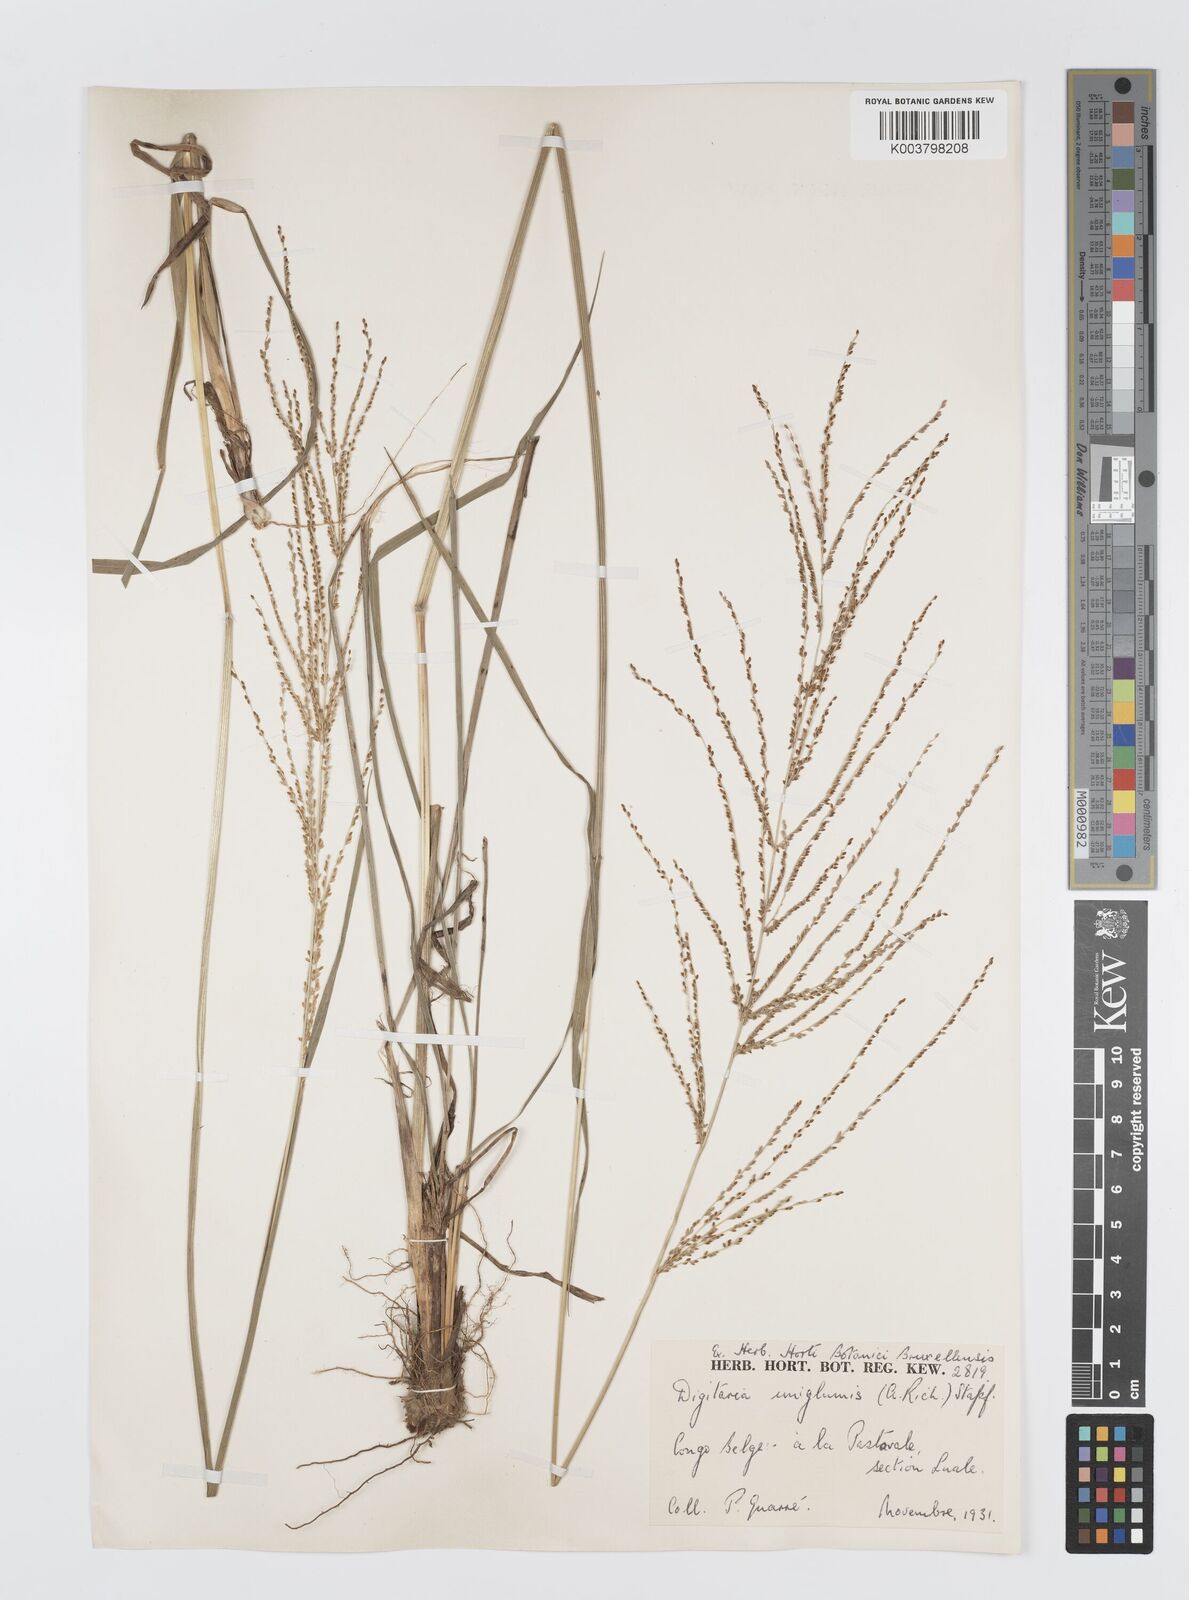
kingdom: Plantae
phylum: Tracheophyta
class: Liliopsida
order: Poales
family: Poaceae
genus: Digitaria
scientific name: Digitaria diagonalis
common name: Brown-seed finger grass
